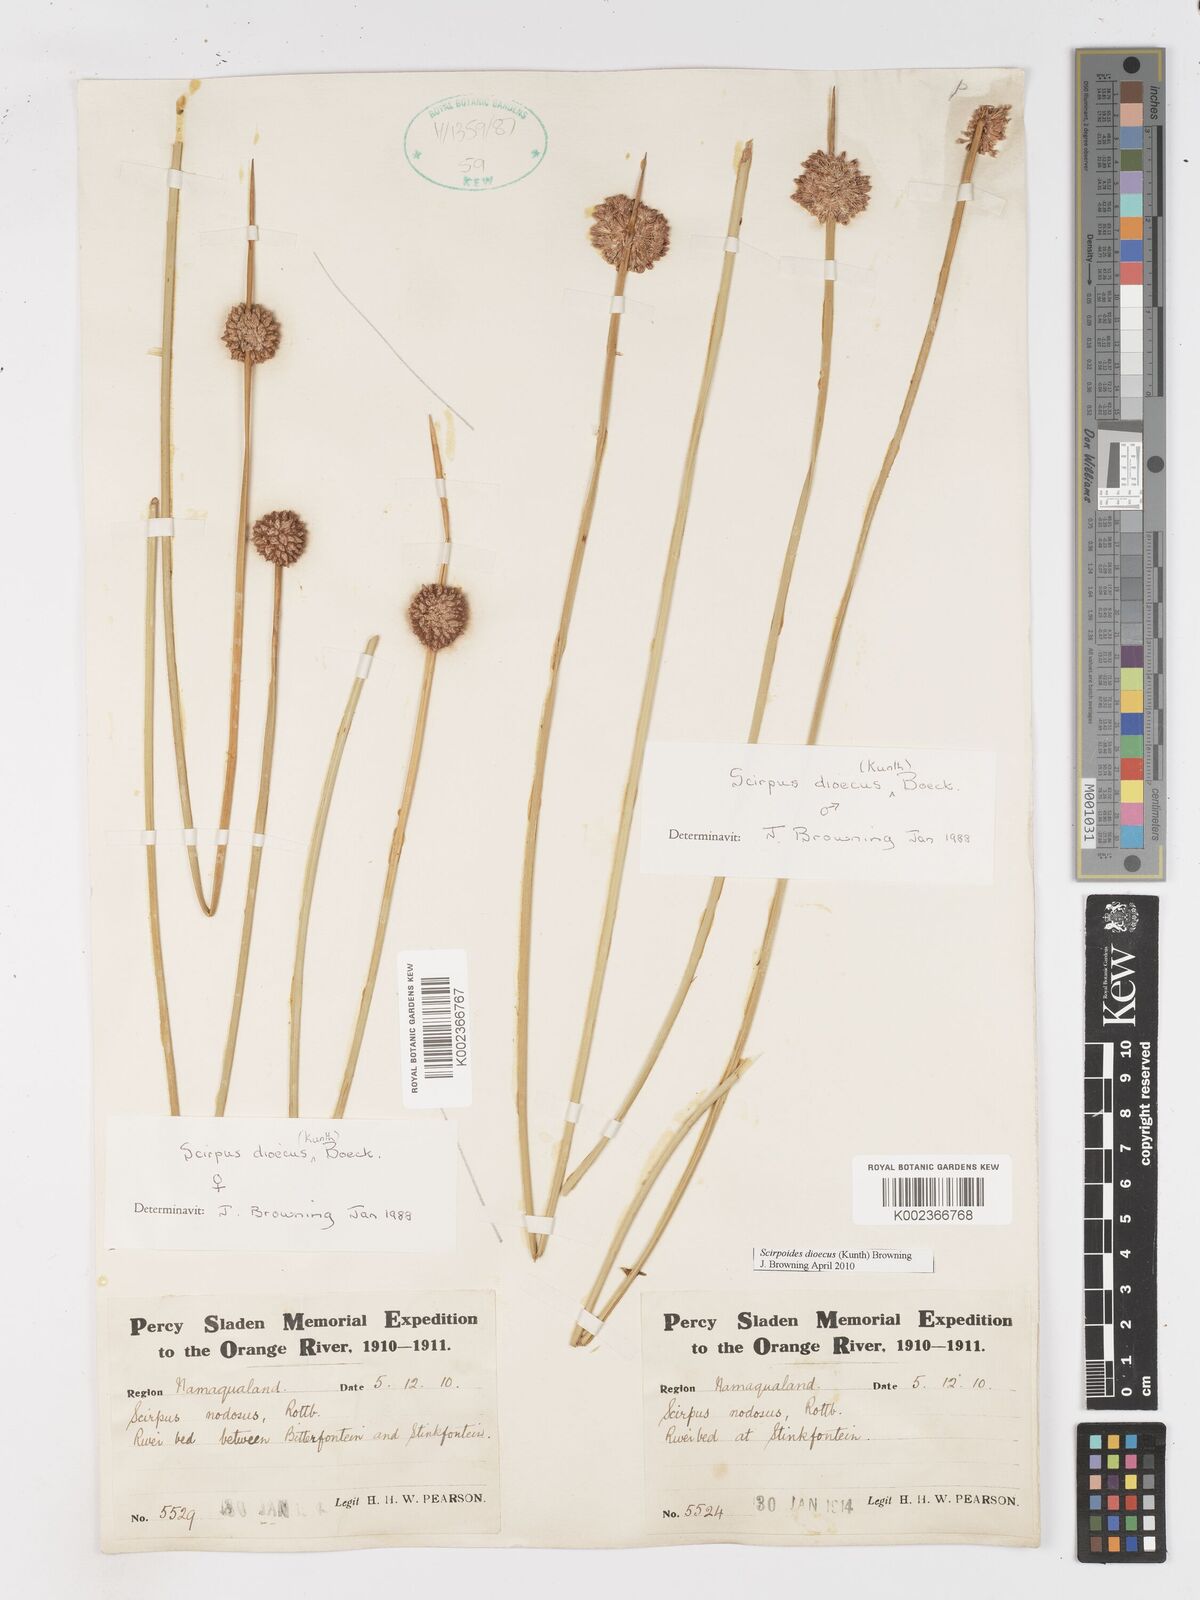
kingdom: Plantae
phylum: Tracheophyta
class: Liliopsida
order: Poales
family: Cyperaceae
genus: Afroscirpoides
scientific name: Afroscirpoides dioeca
